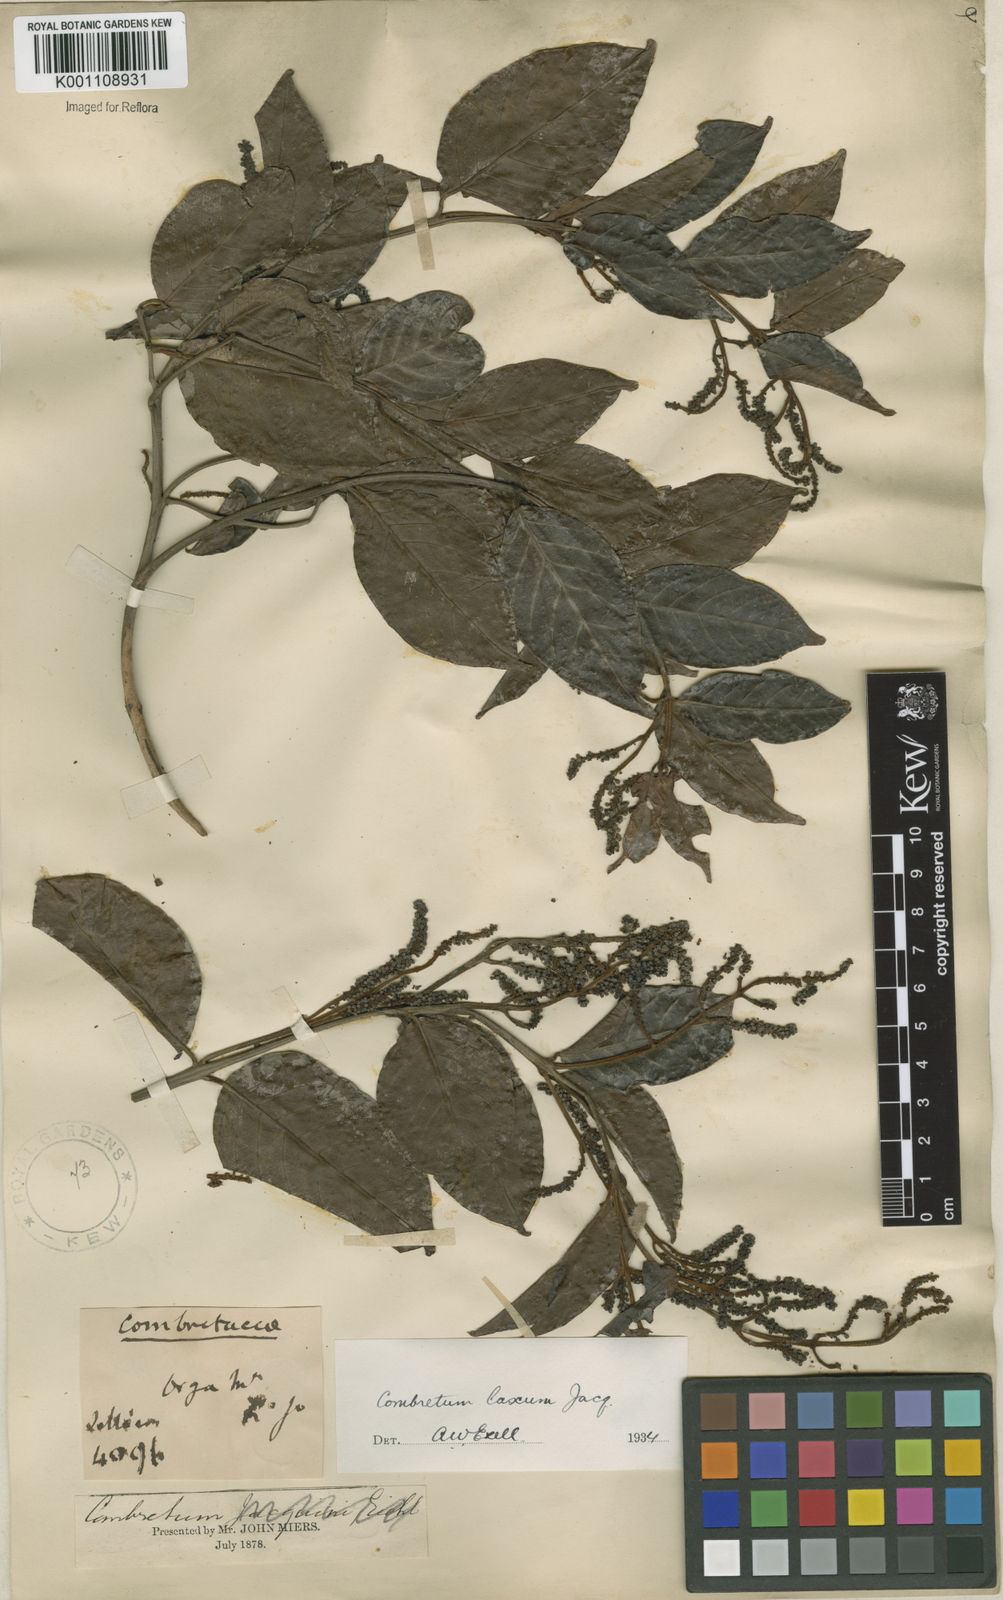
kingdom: Plantae
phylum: Tracheophyta
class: Magnoliopsida
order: Myrtales
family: Combretaceae
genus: Combretum
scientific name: Combretum laxum
